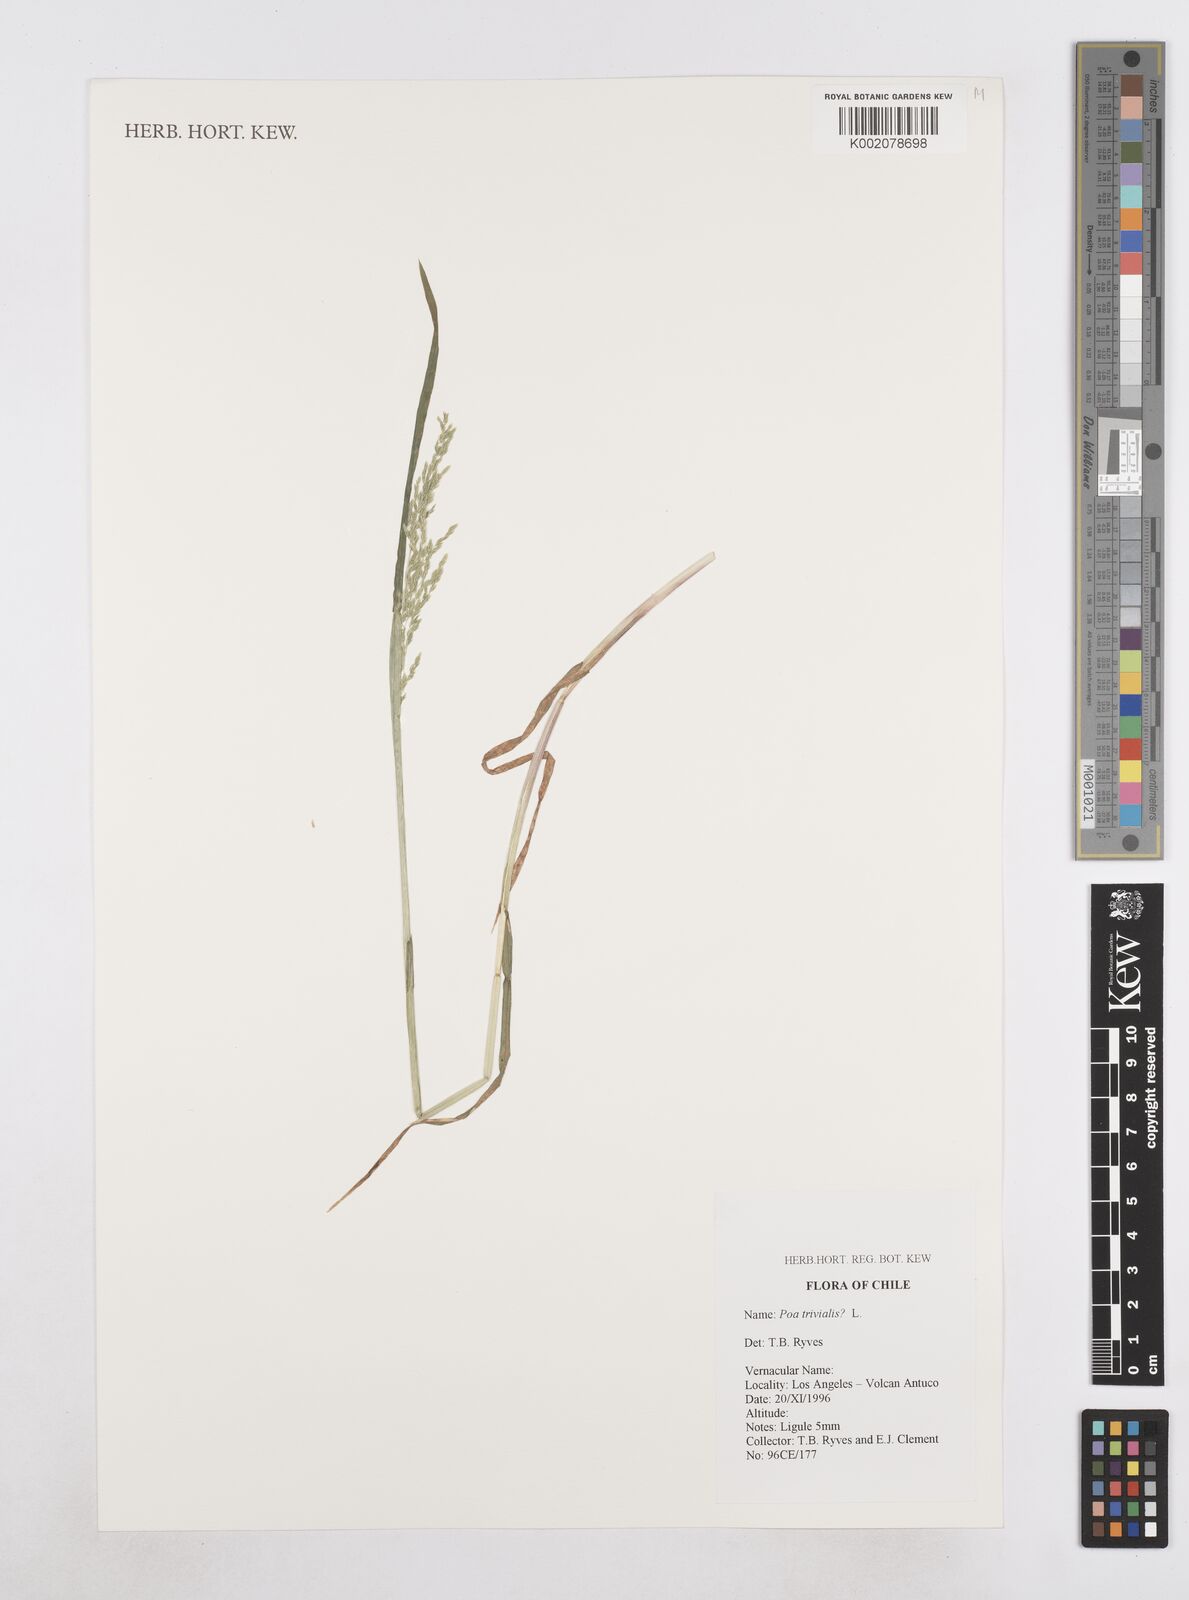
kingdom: Plantae
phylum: Tracheophyta
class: Liliopsida
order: Poales
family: Poaceae
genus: Poa
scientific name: Poa trivialis
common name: Rough bluegrass
